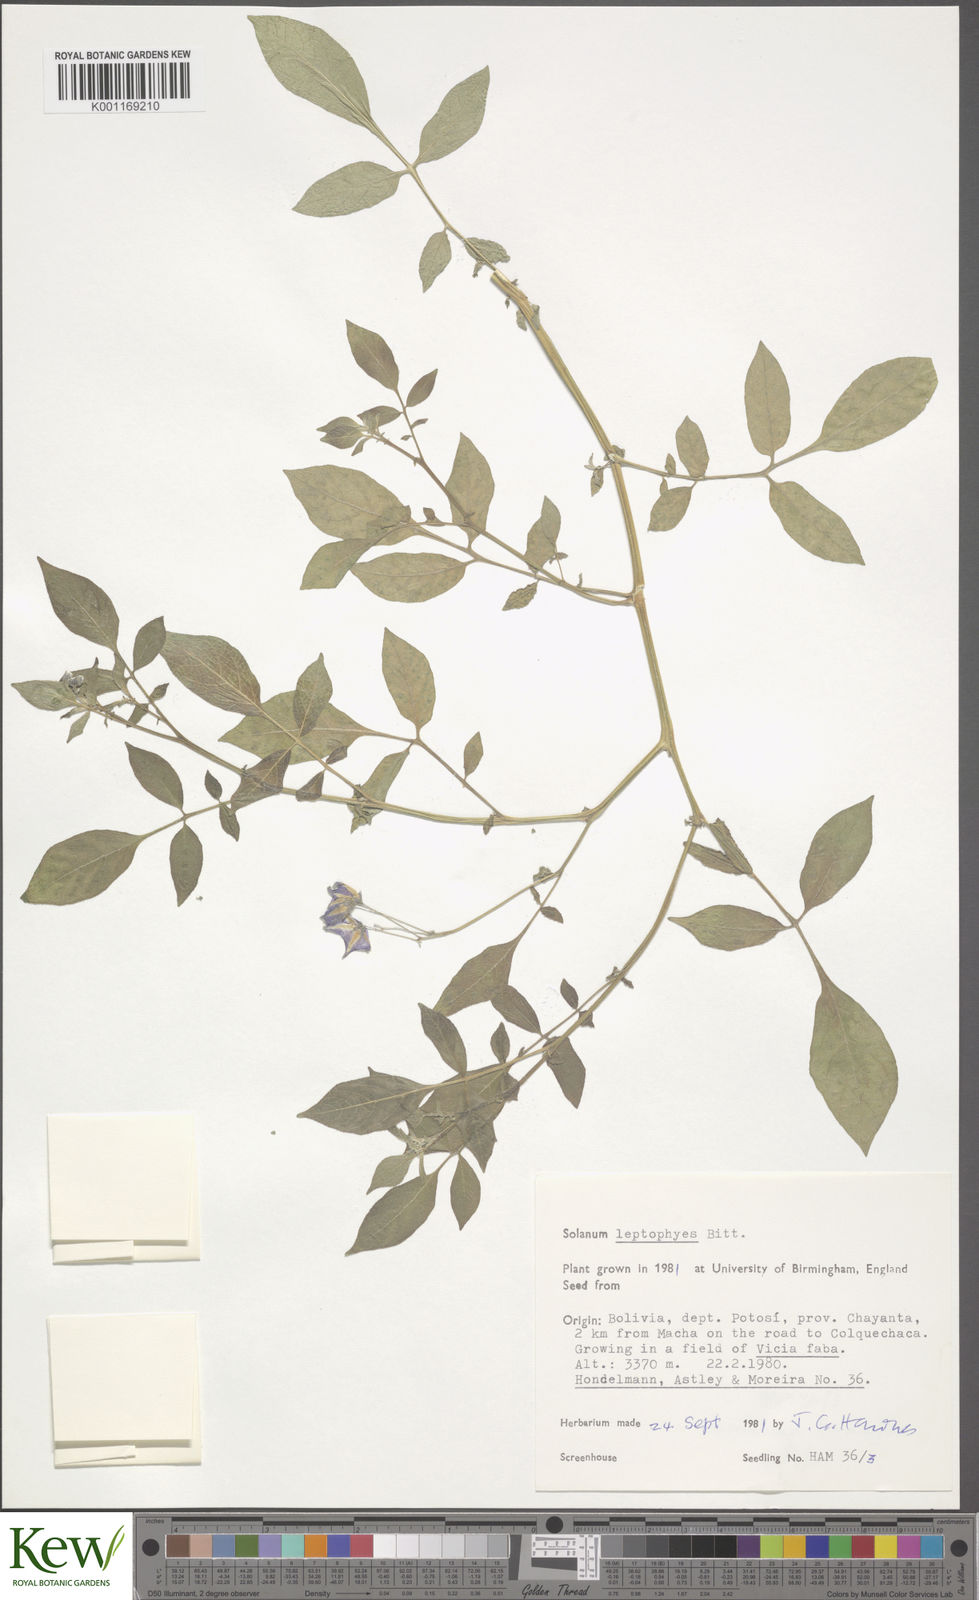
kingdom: Plantae
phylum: Tracheophyta
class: Magnoliopsida
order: Solanales
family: Solanaceae
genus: Solanum
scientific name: Solanum brevicaule
